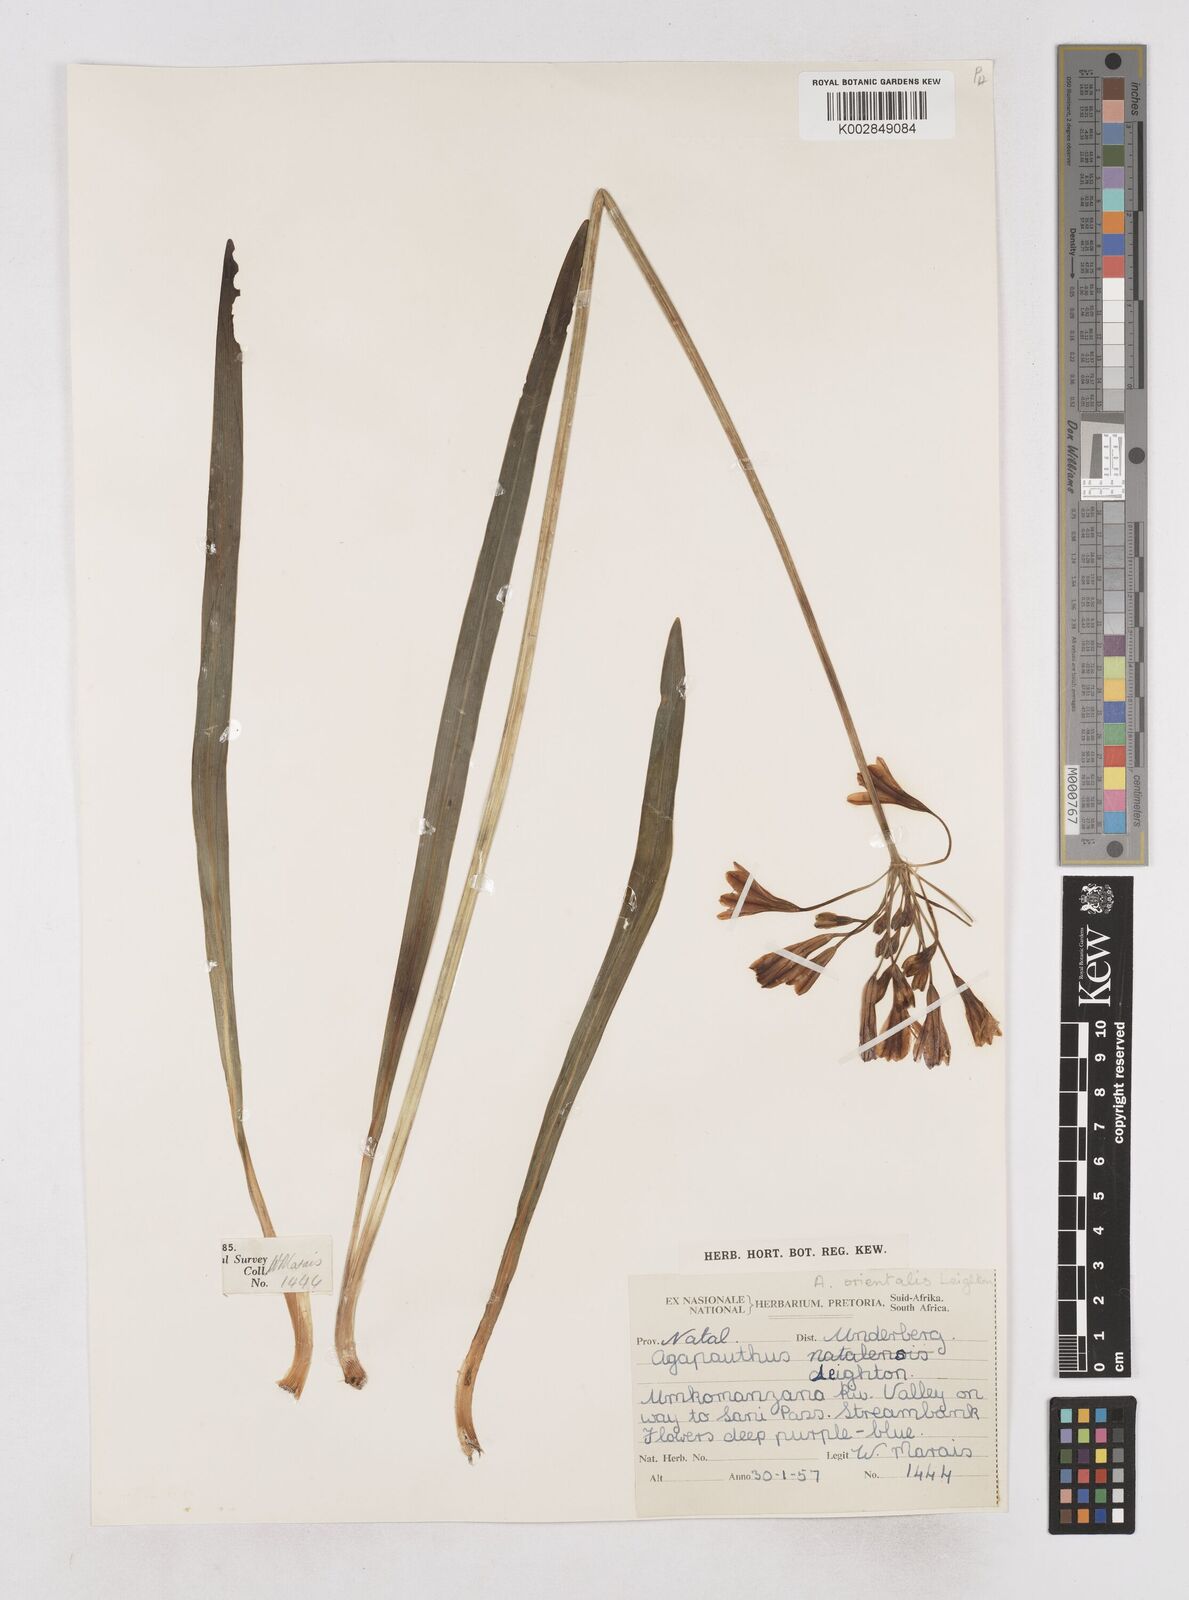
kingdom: Plantae
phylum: Tracheophyta
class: Liliopsida
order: Asparagales
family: Amaryllidaceae
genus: Agapanthus
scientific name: Agapanthus campanulatus
